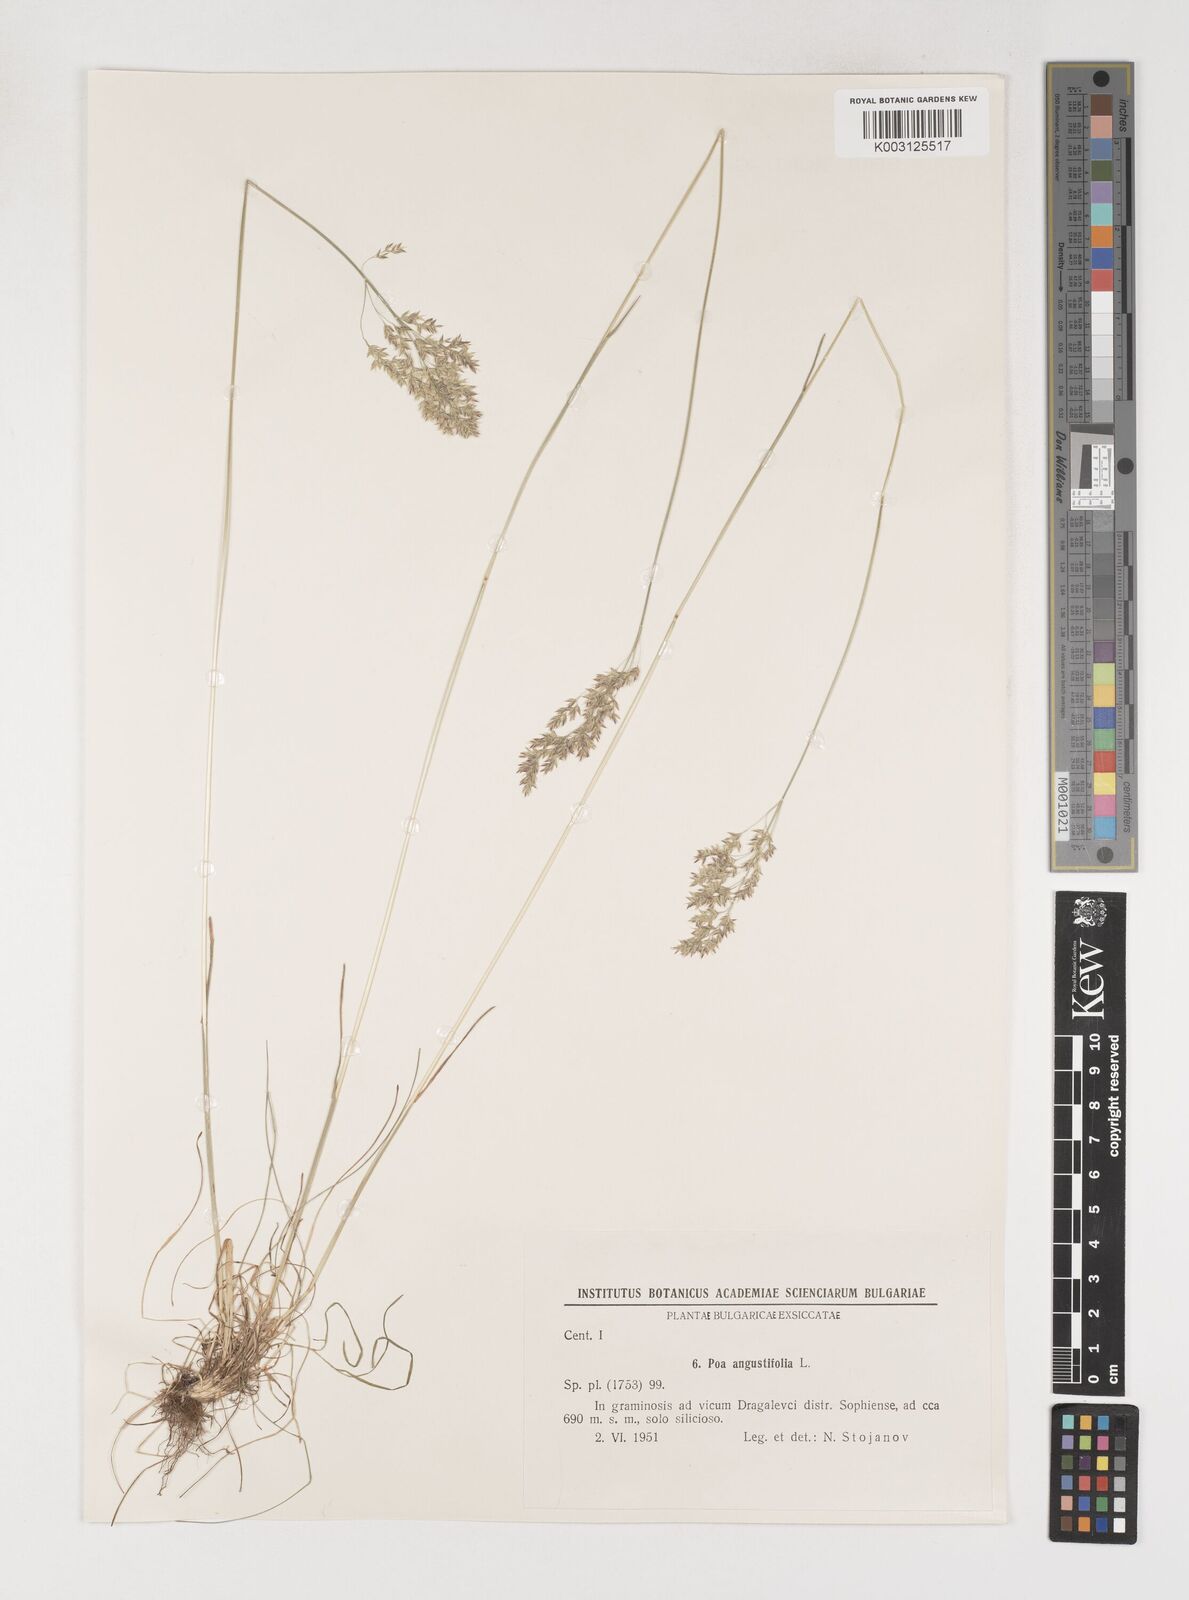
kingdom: Plantae
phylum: Tracheophyta
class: Liliopsida
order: Poales
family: Poaceae
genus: Poa
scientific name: Poa angustifolia
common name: Narrow-leaved meadow-grass
